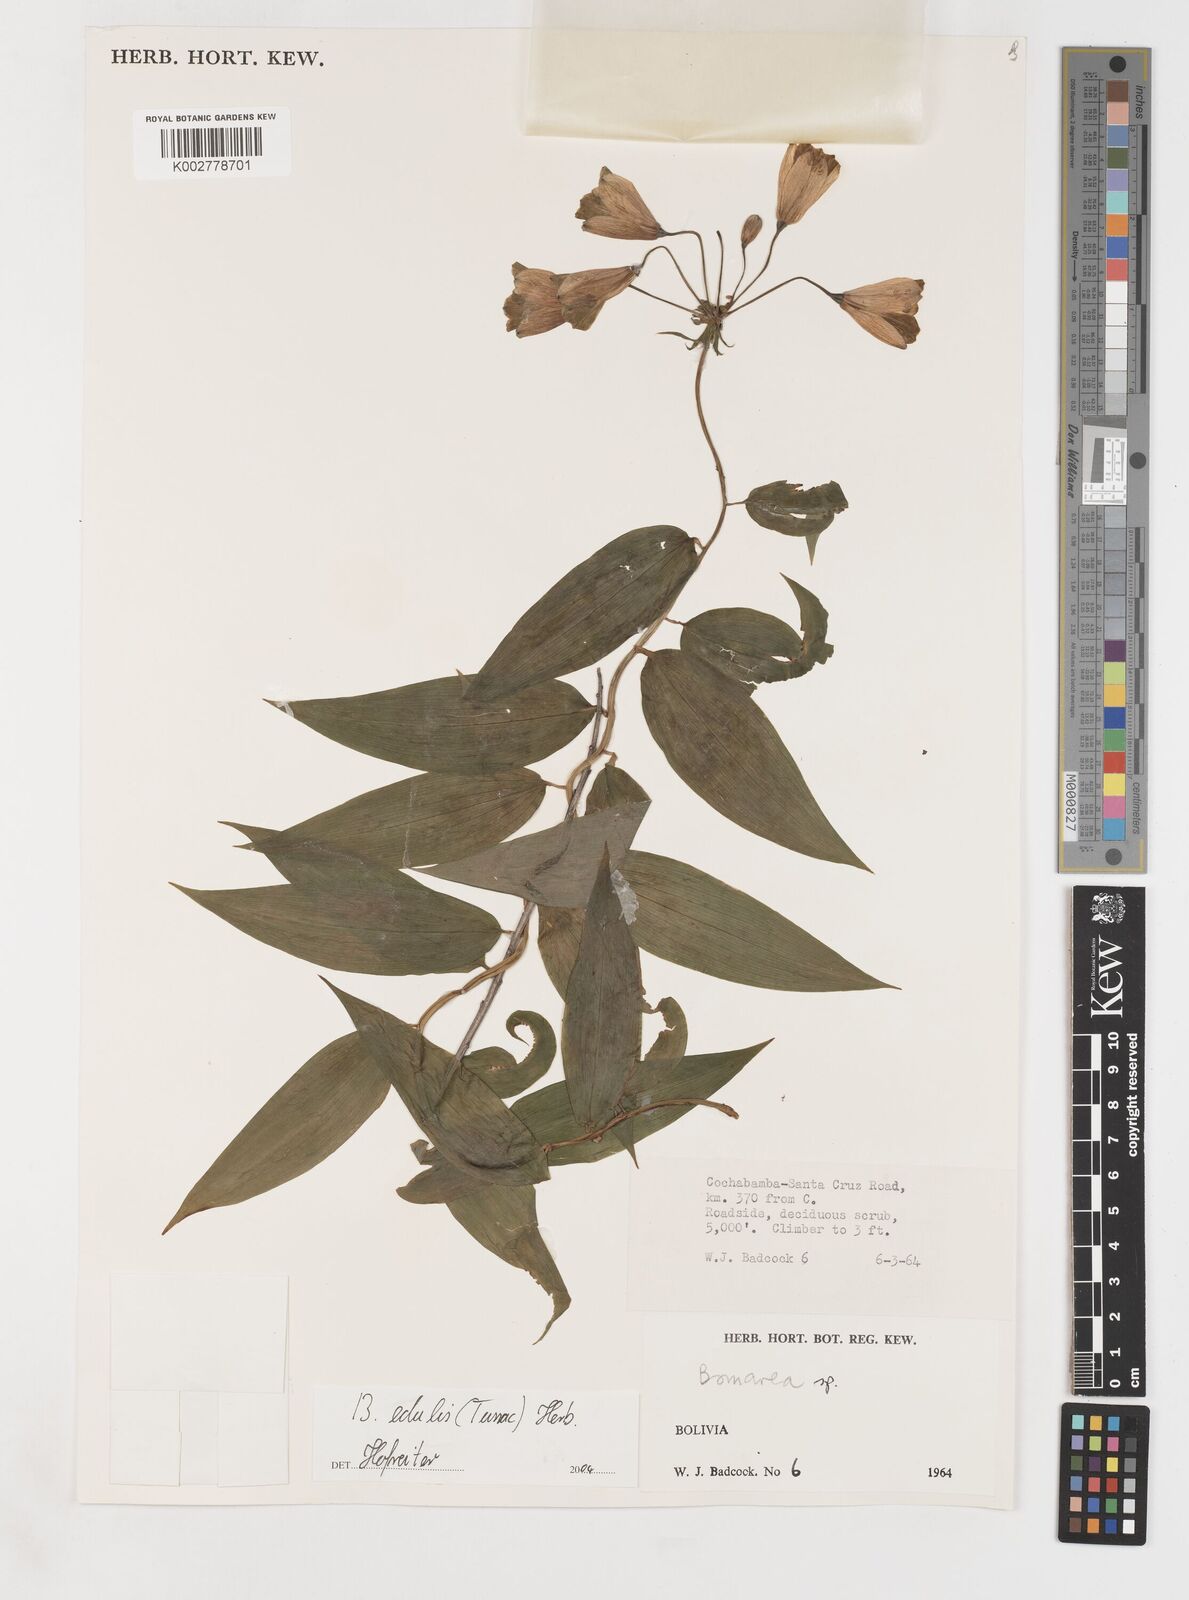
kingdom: Plantae
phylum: Tracheophyta
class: Liliopsida
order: Liliales
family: Alstroemeriaceae
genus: Bomarea
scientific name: Bomarea edulis
